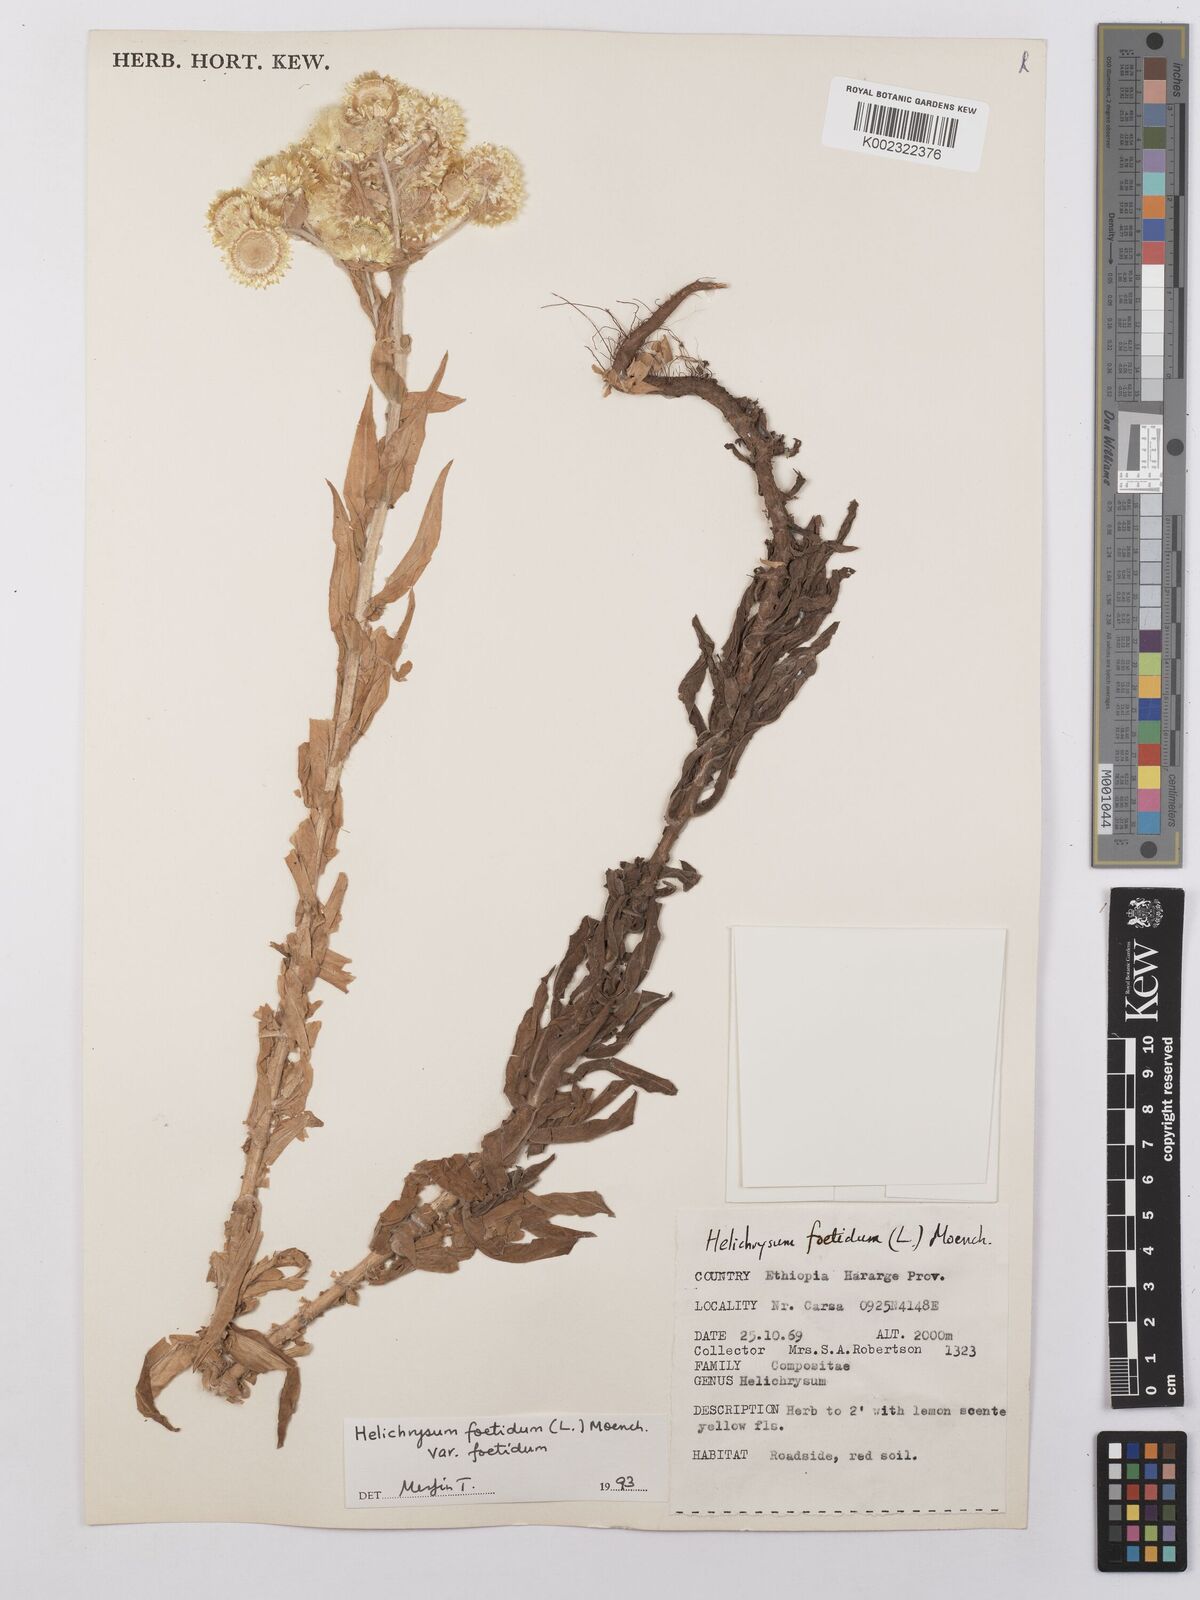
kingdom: Plantae
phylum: Tracheophyta
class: Magnoliopsida
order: Asterales
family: Asteraceae
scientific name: Asteraceae
